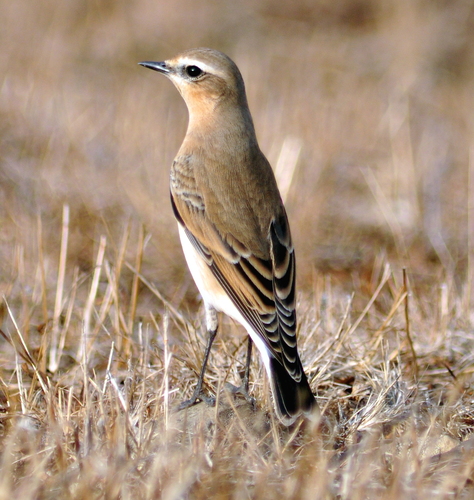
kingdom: Animalia
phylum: Chordata
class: Aves
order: Passeriformes
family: Muscicapidae
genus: Oenanthe
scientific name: Oenanthe oenanthe
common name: Northern wheatear
